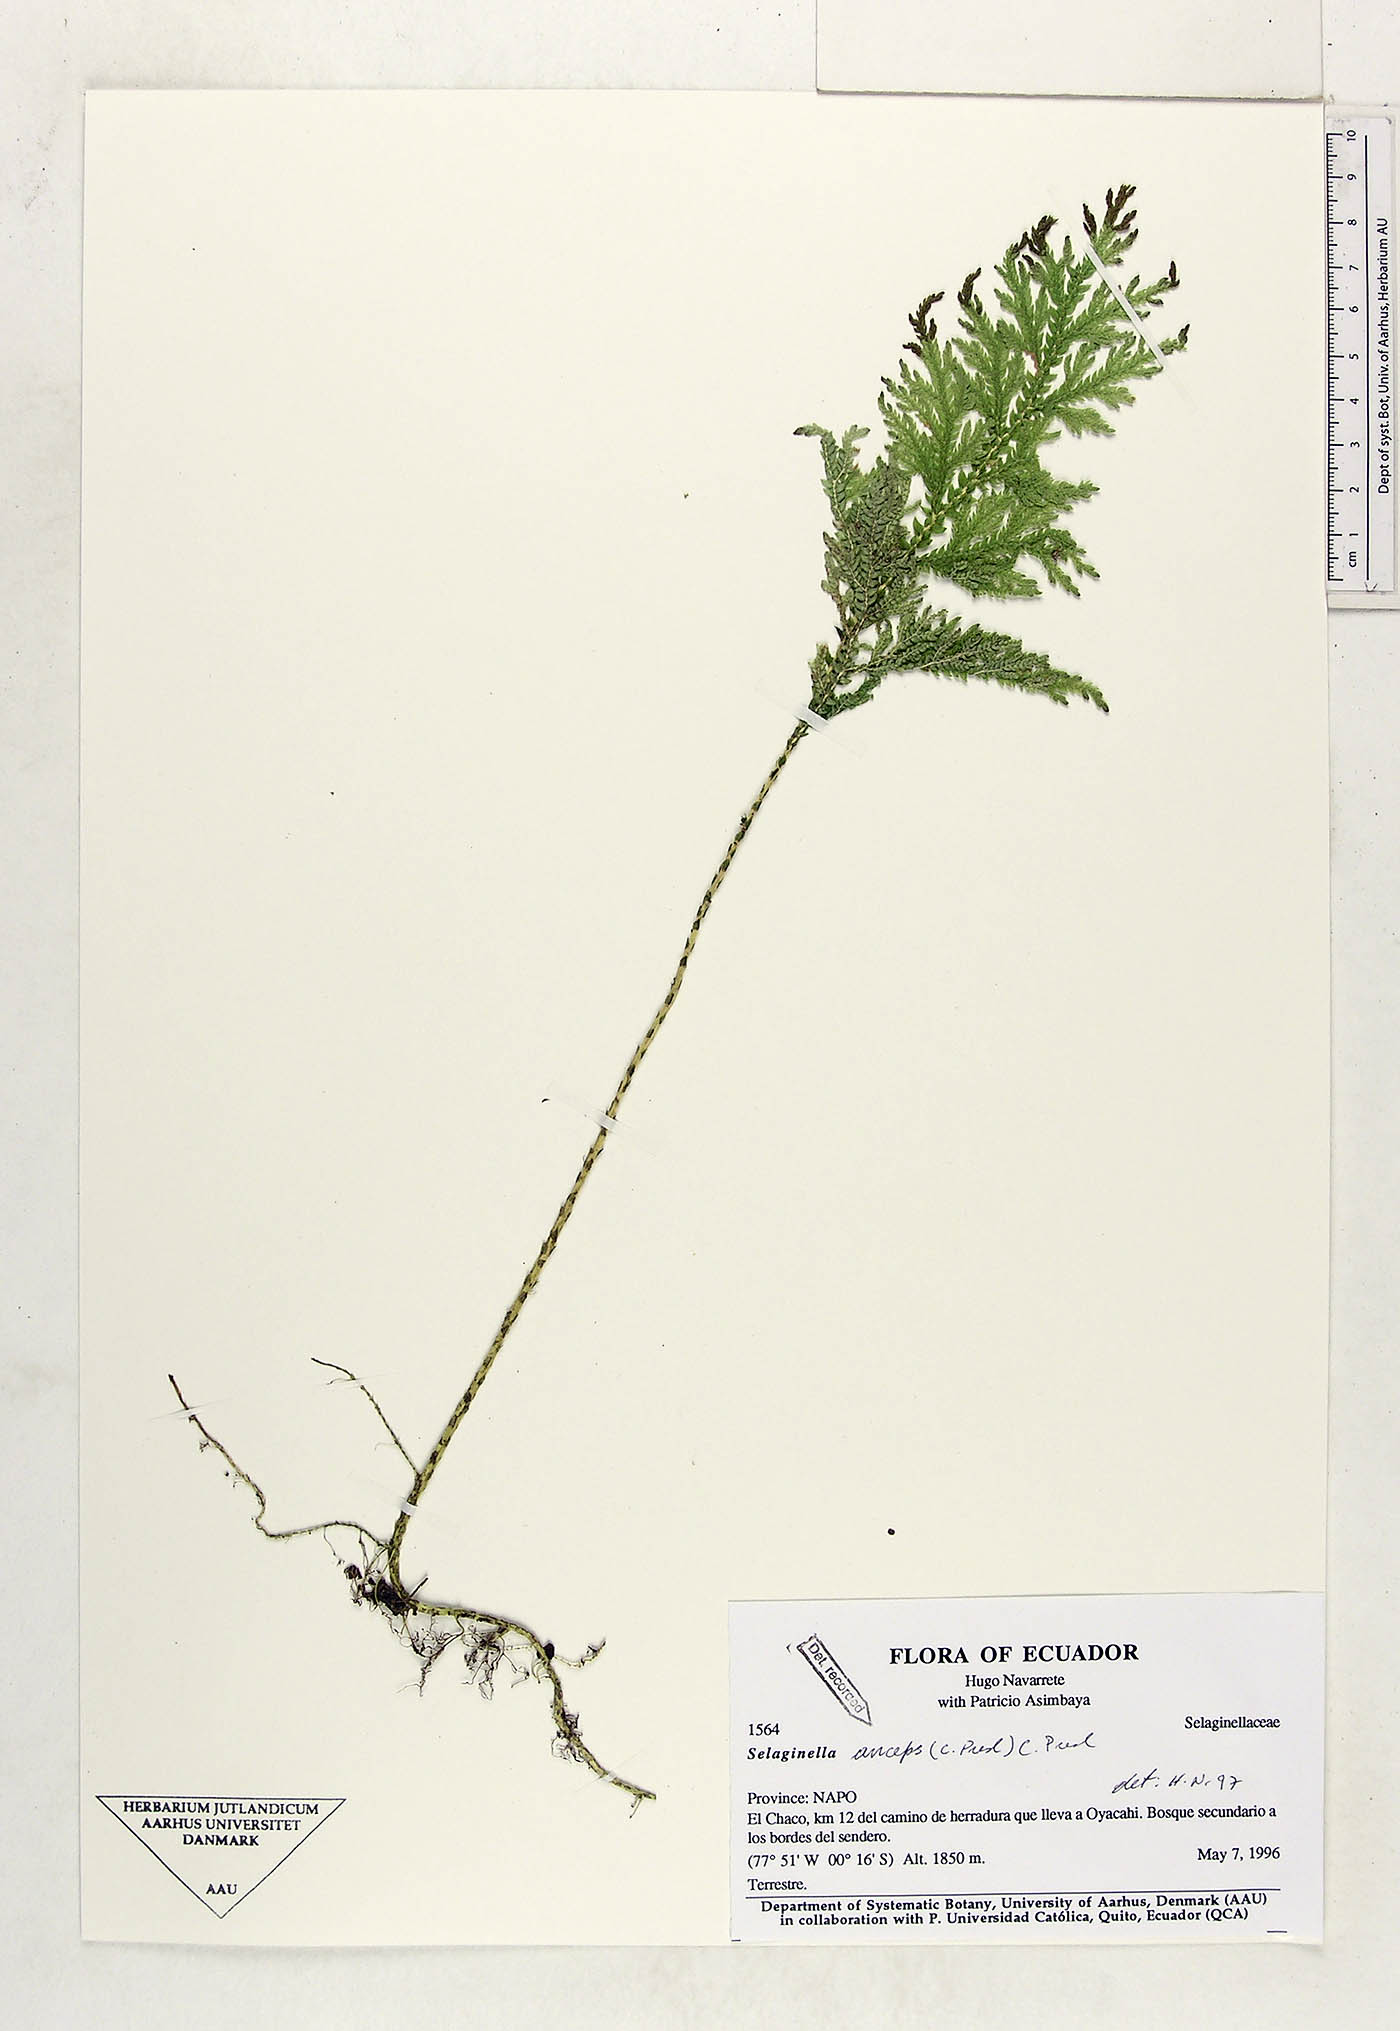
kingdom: Plantae
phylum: Tracheophyta
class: Lycopodiopsida
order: Selaginellales
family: Selaginellaceae
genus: Selaginella
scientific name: Selaginella anceps
